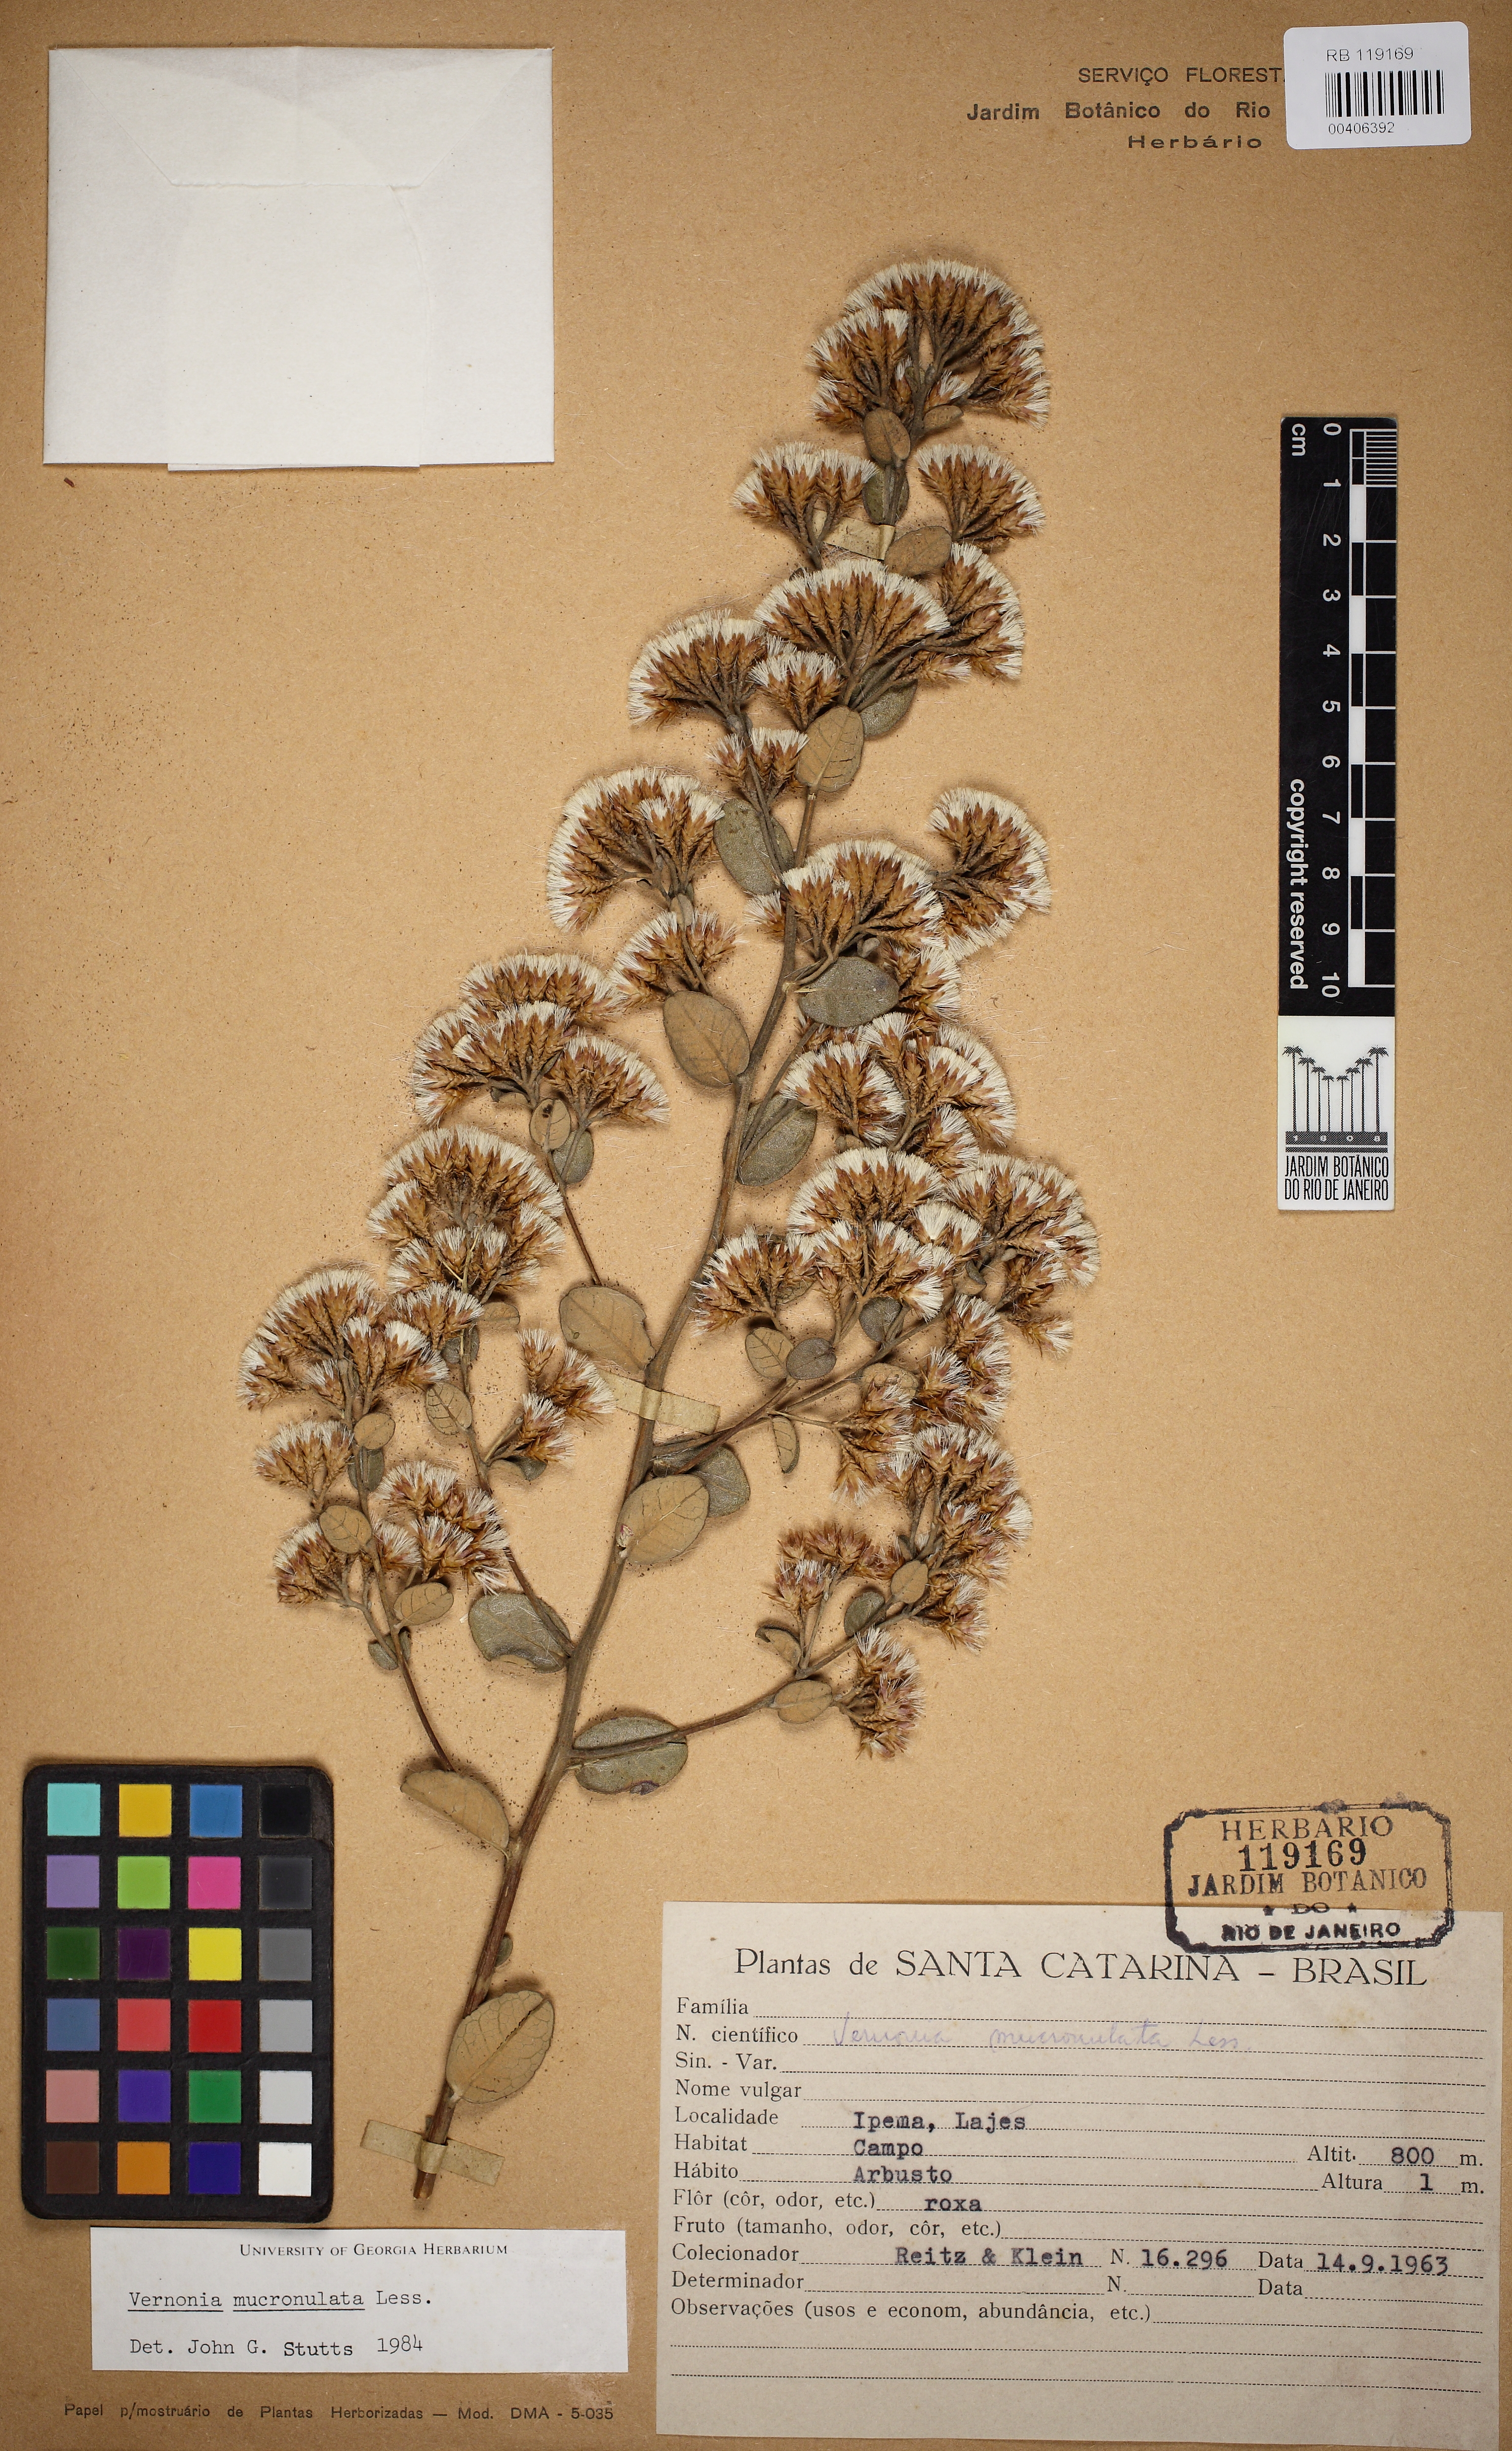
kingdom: Plantae
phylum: Tracheophyta
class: Magnoliopsida
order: Asterales
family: Asteraceae
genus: Vernonanthura
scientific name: Vernonanthura mucronulata
